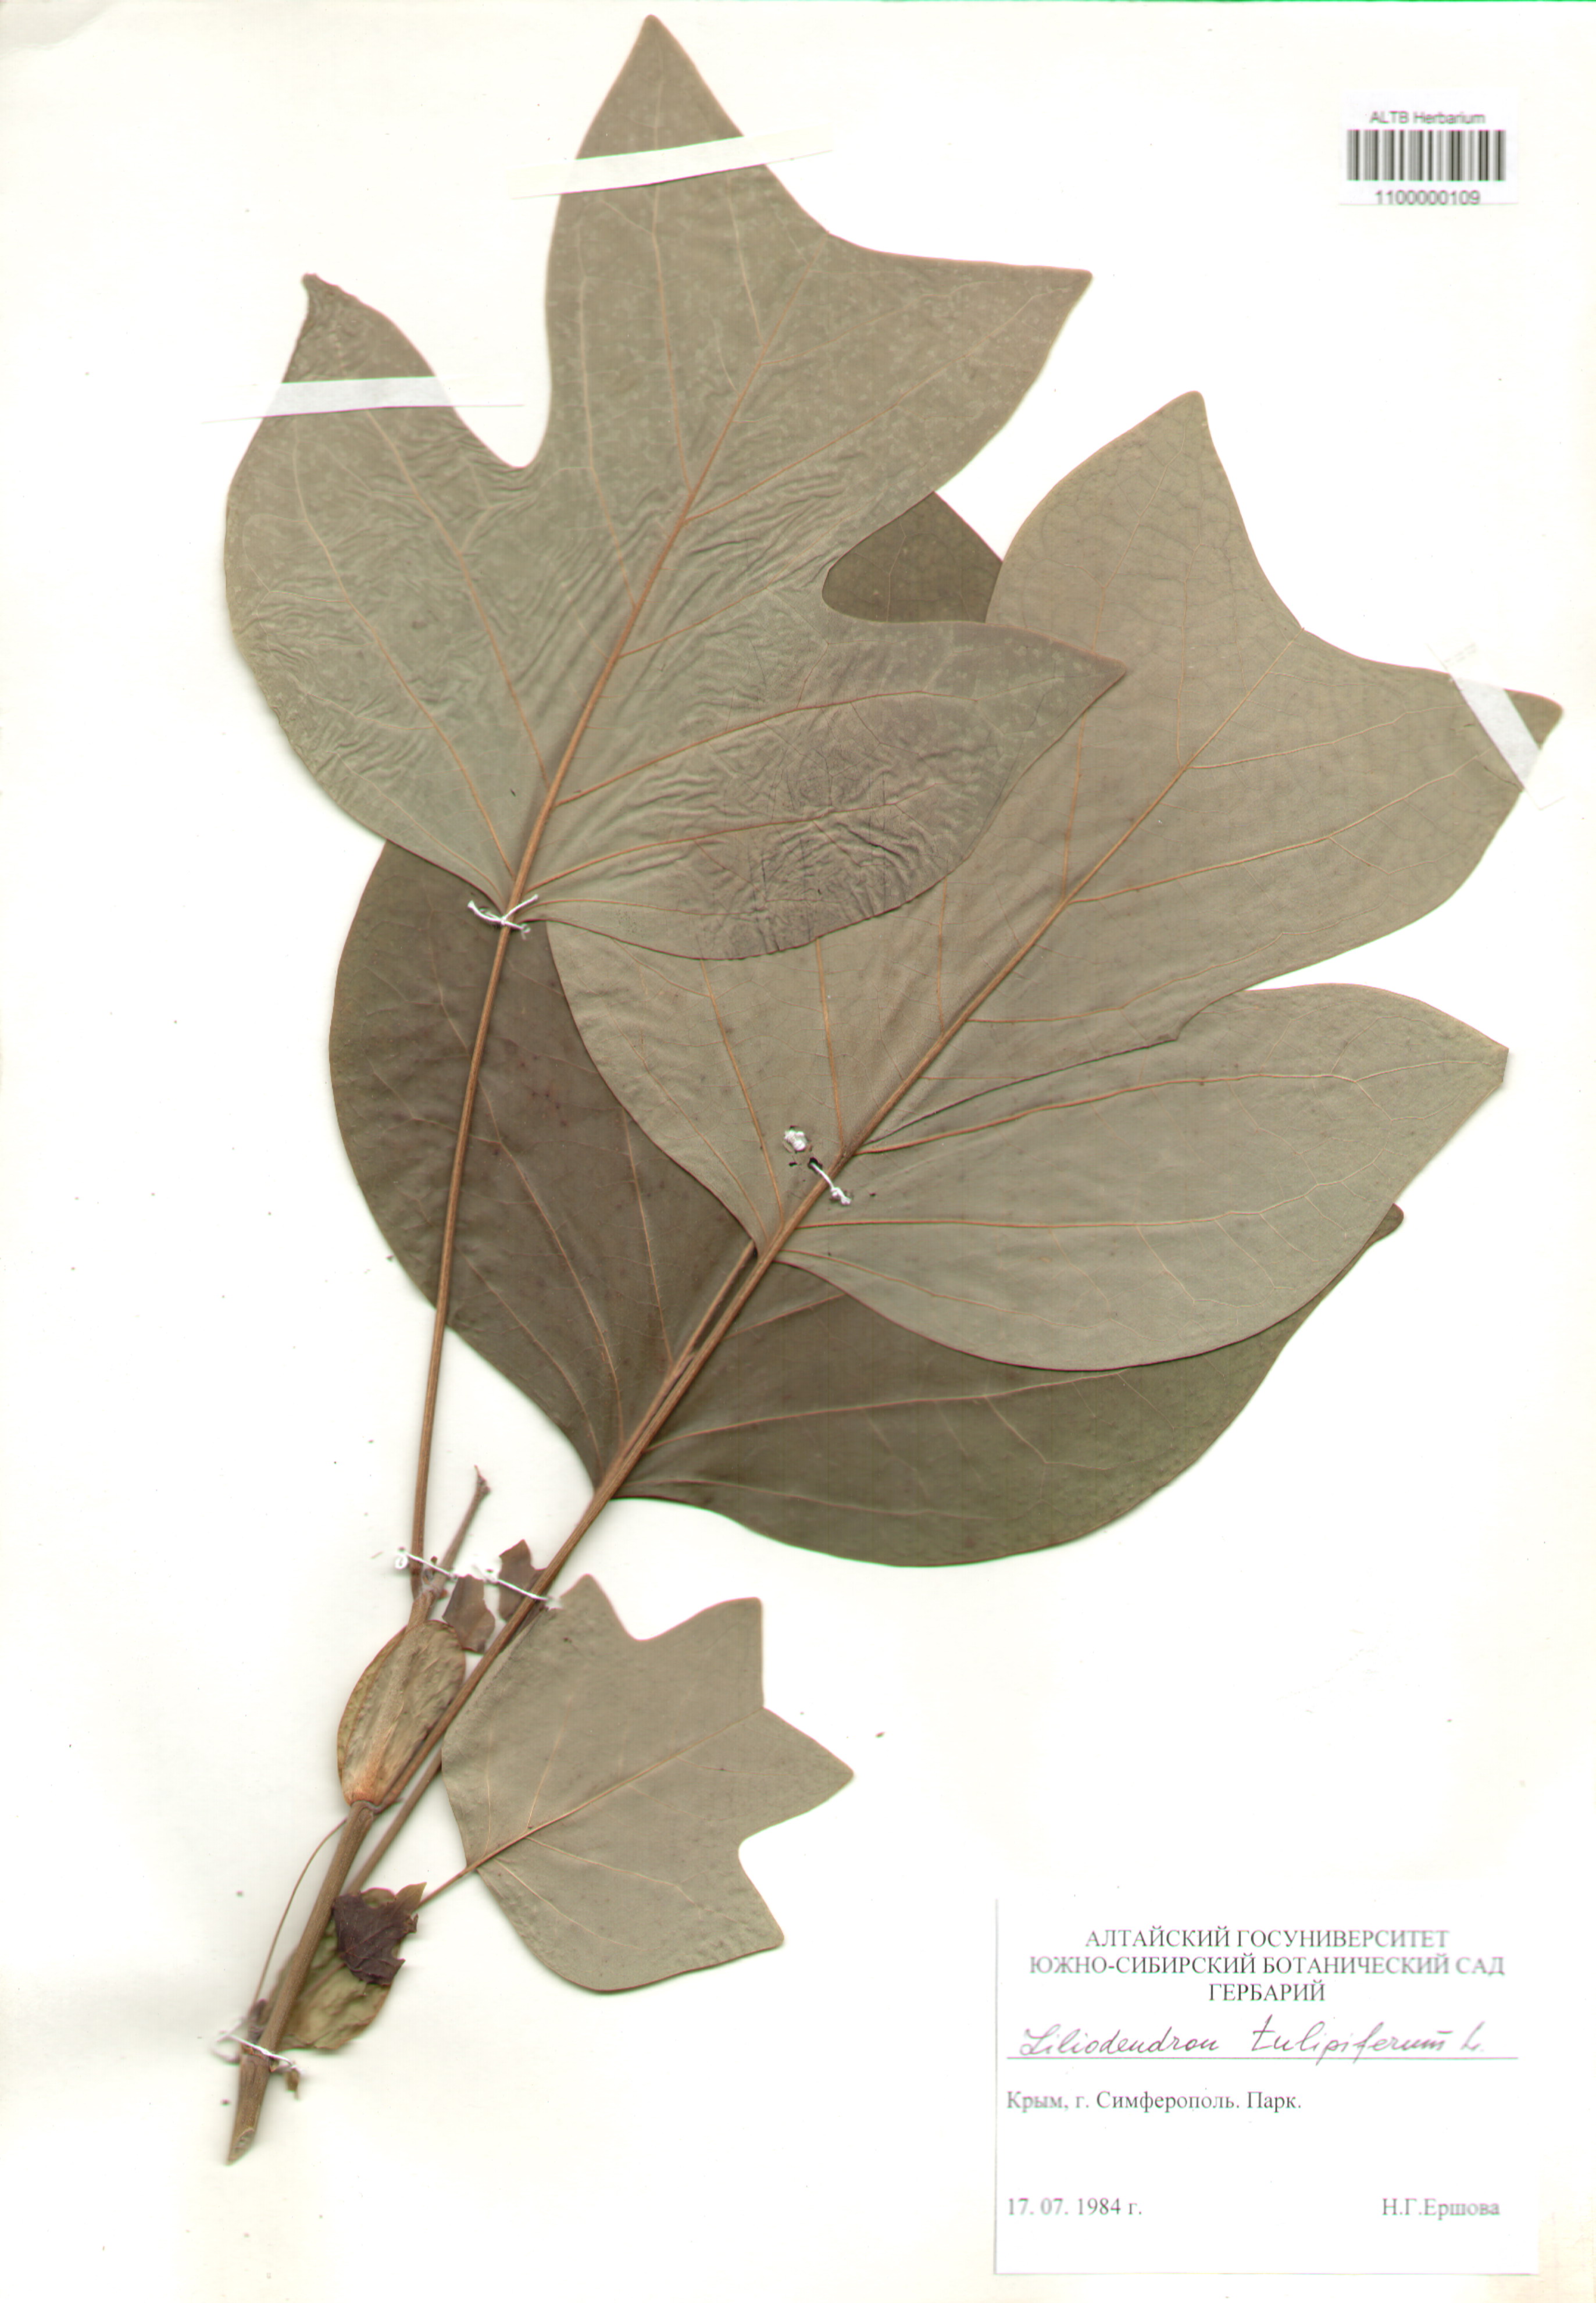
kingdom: Plantae
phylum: Tracheophyta
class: Magnoliopsida
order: Magnoliales
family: Magnoliaceae
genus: Liriodendron
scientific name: Liriodendron tulipifera
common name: Tulip tree
